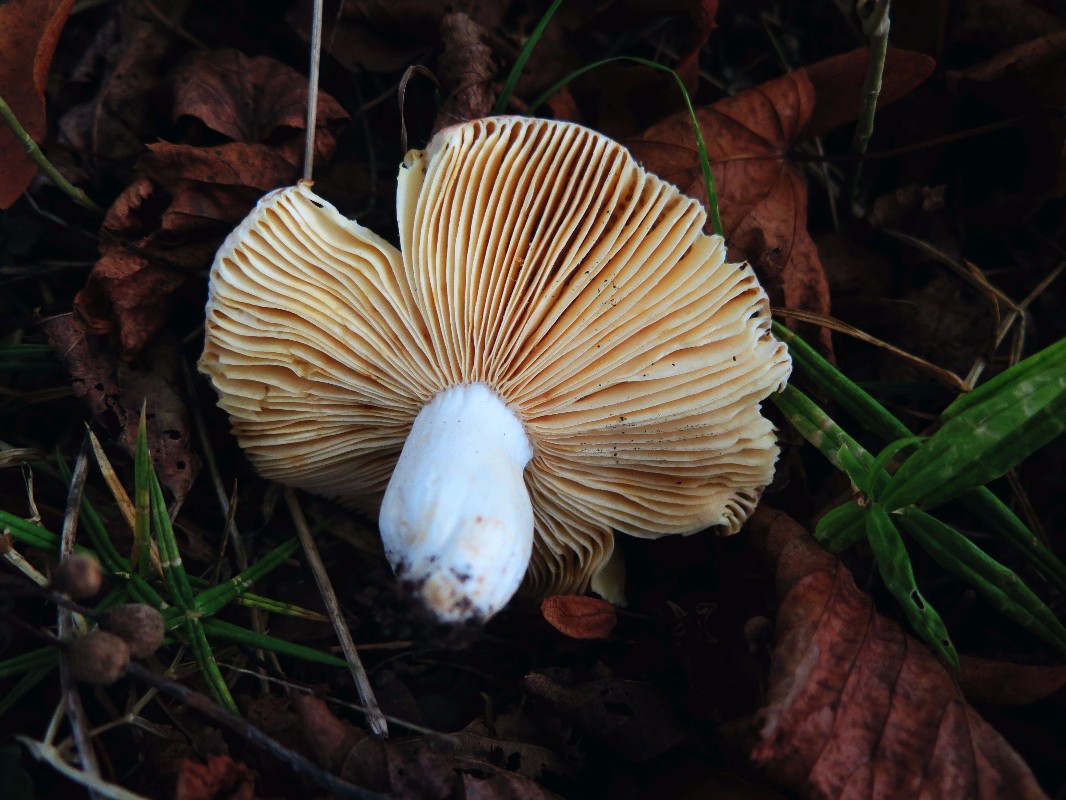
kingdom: Fungi
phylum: Basidiomycota
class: Agaricomycetes
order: Russulales
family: Russulaceae
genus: Russula
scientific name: Russula maculata
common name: plettet skørhat
